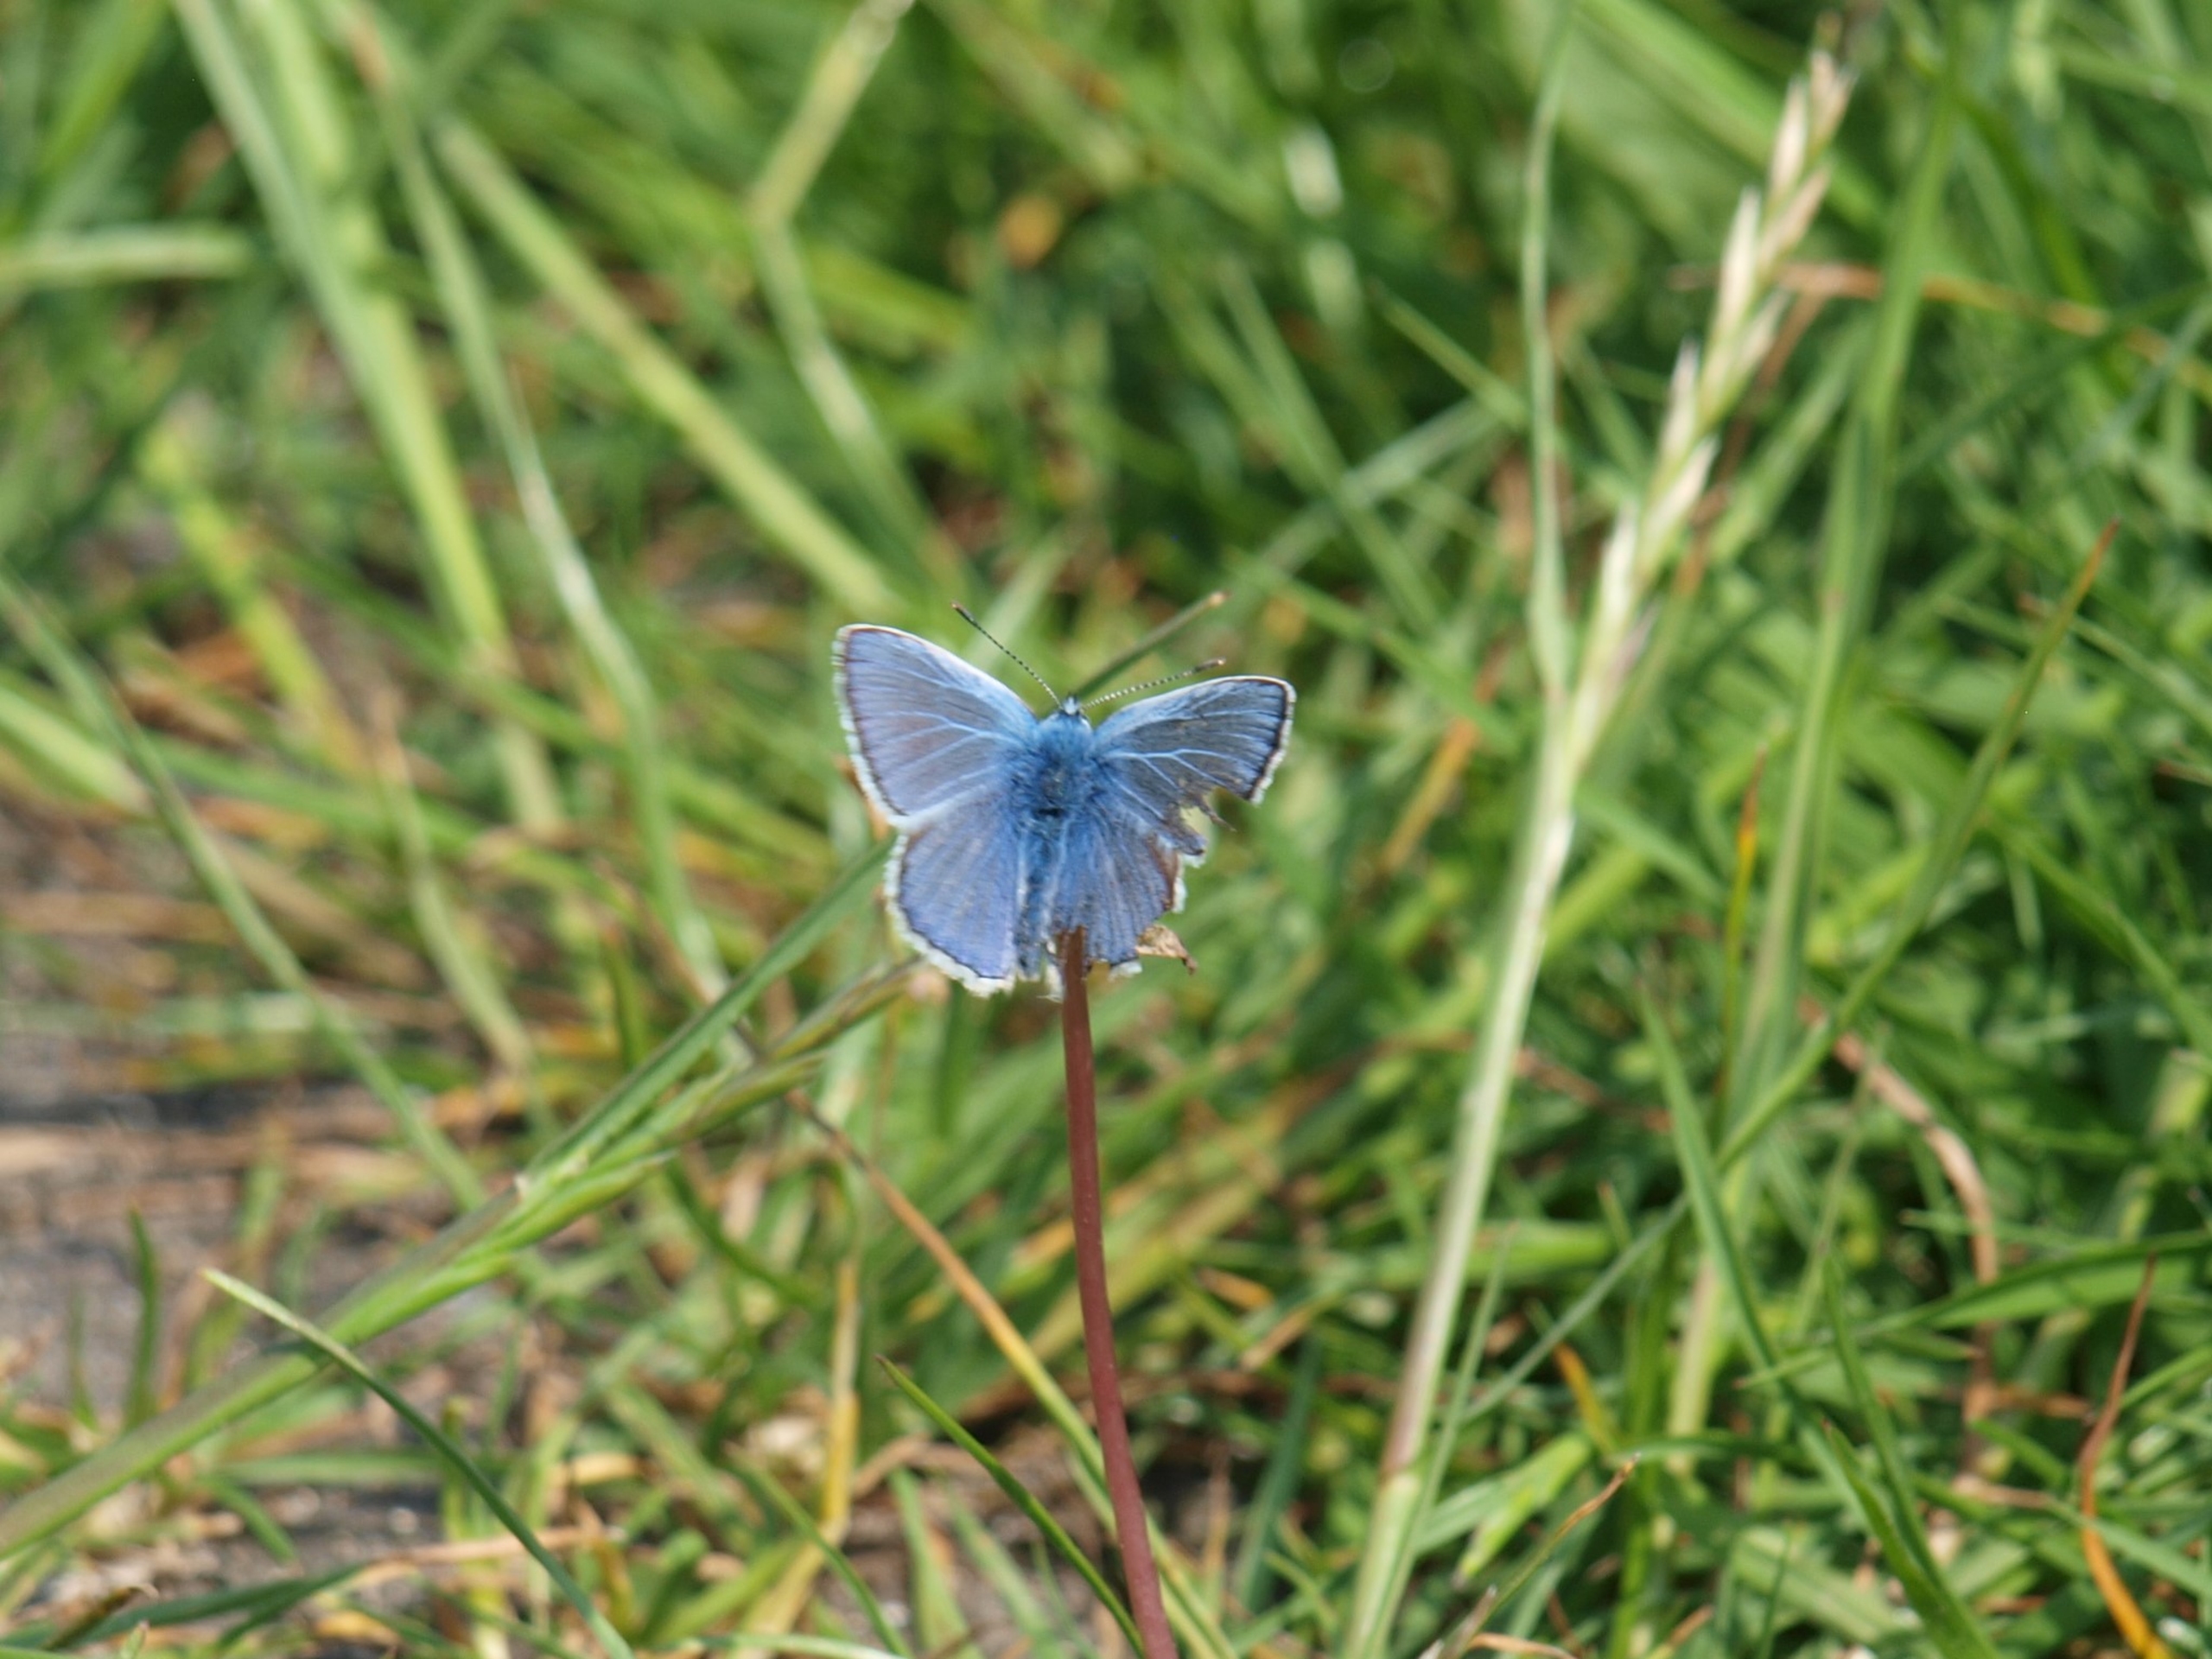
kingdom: Animalia
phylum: Arthropoda
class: Insecta
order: Lepidoptera
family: Lycaenidae
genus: Polyommatus
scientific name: Polyommatus icarus
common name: Almindelig blåfugl
